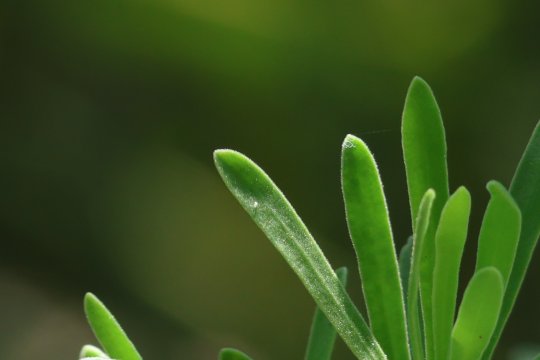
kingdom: Animalia
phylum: Arthropoda
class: Insecta
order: Lepidoptera
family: Lycaenidae
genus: Strymon
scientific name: Strymon
